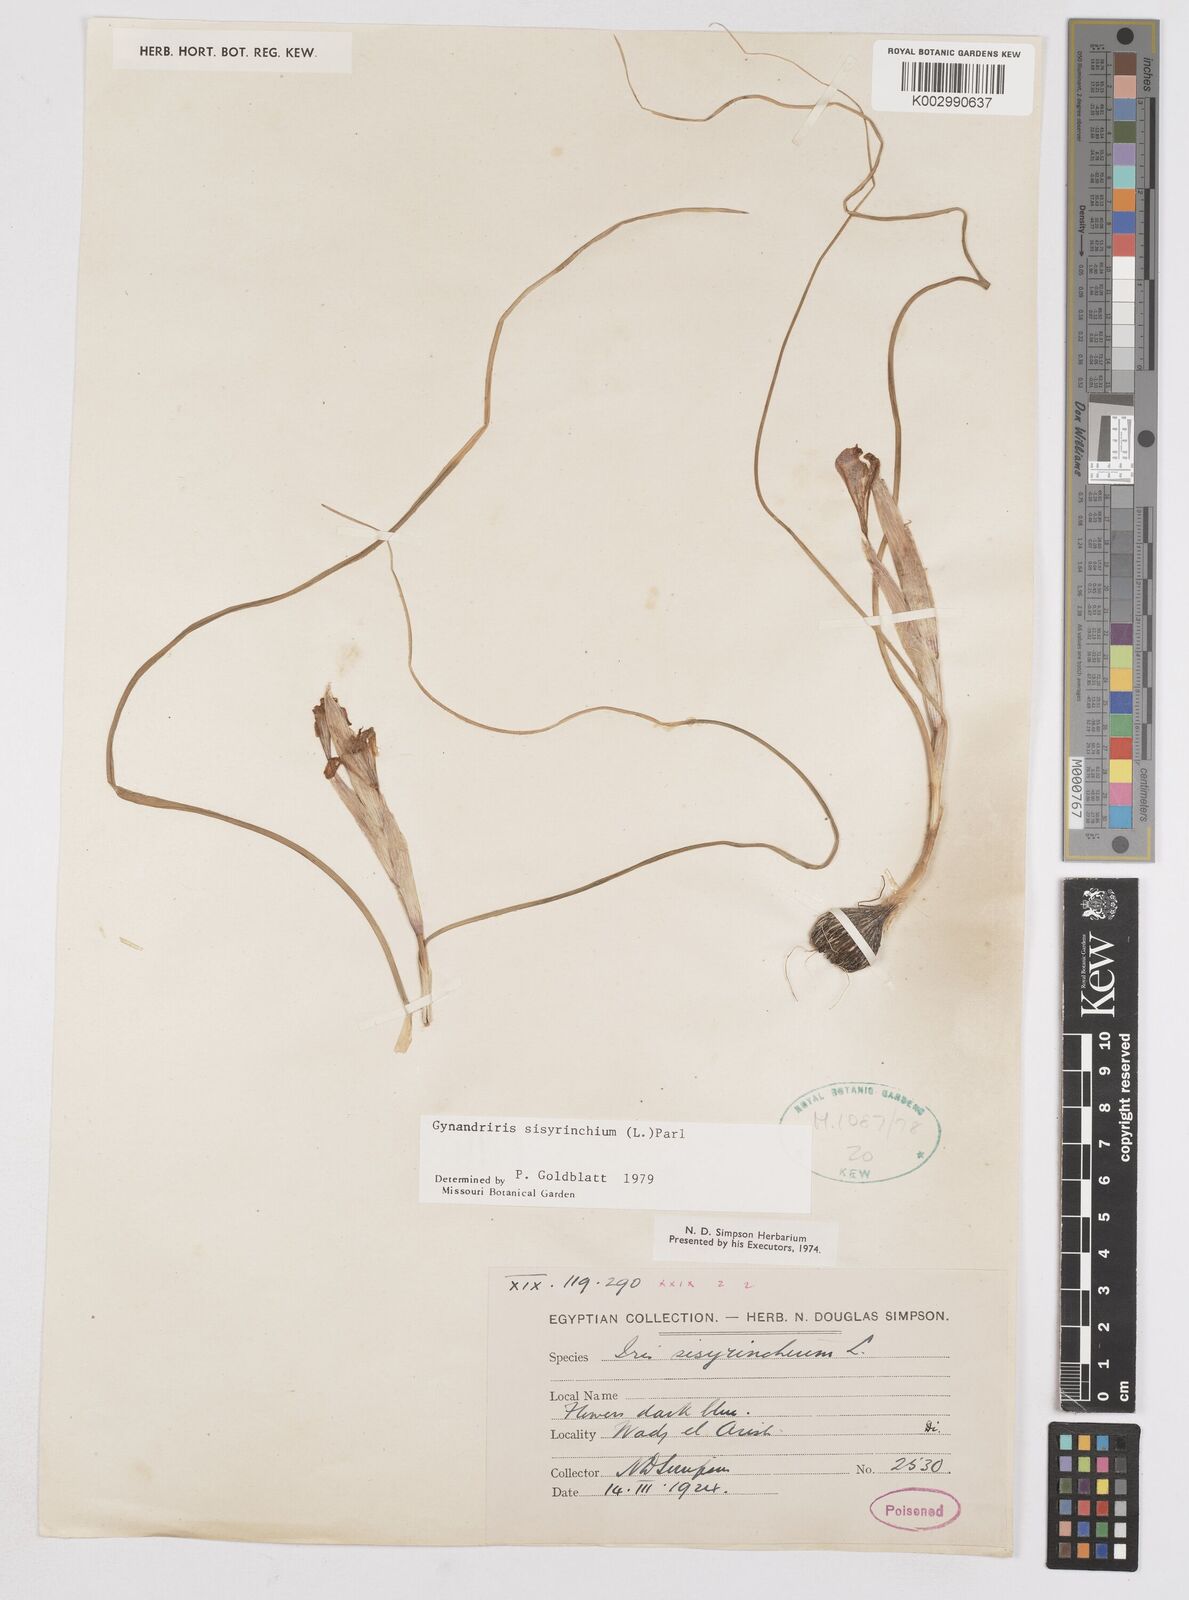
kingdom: Plantae
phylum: Tracheophyta
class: Liliopsida
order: Asparagales
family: Iridaceae
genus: Moraea
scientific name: Moraea sisyrinchium
